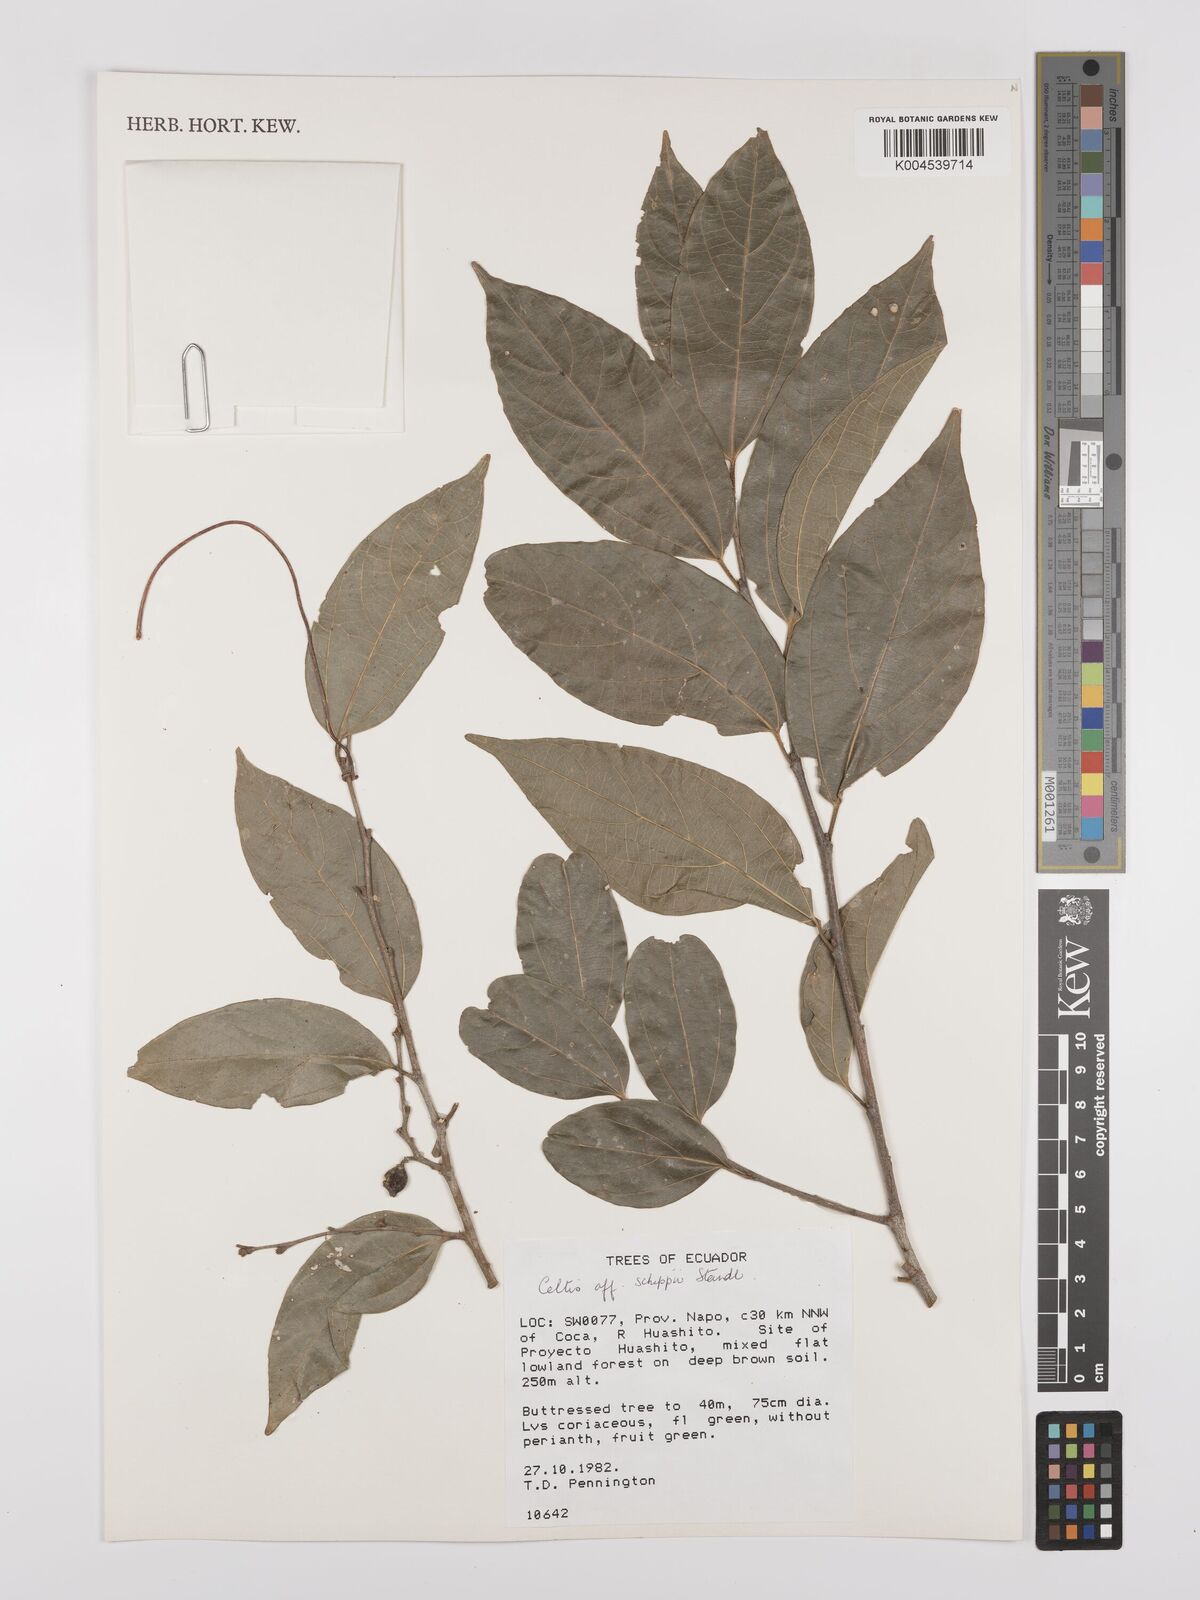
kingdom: Plantae
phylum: Tracheophyta
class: Magnoliopsida
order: Rosales
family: Cannabaceae
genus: Celtis
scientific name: Celtis schippii
